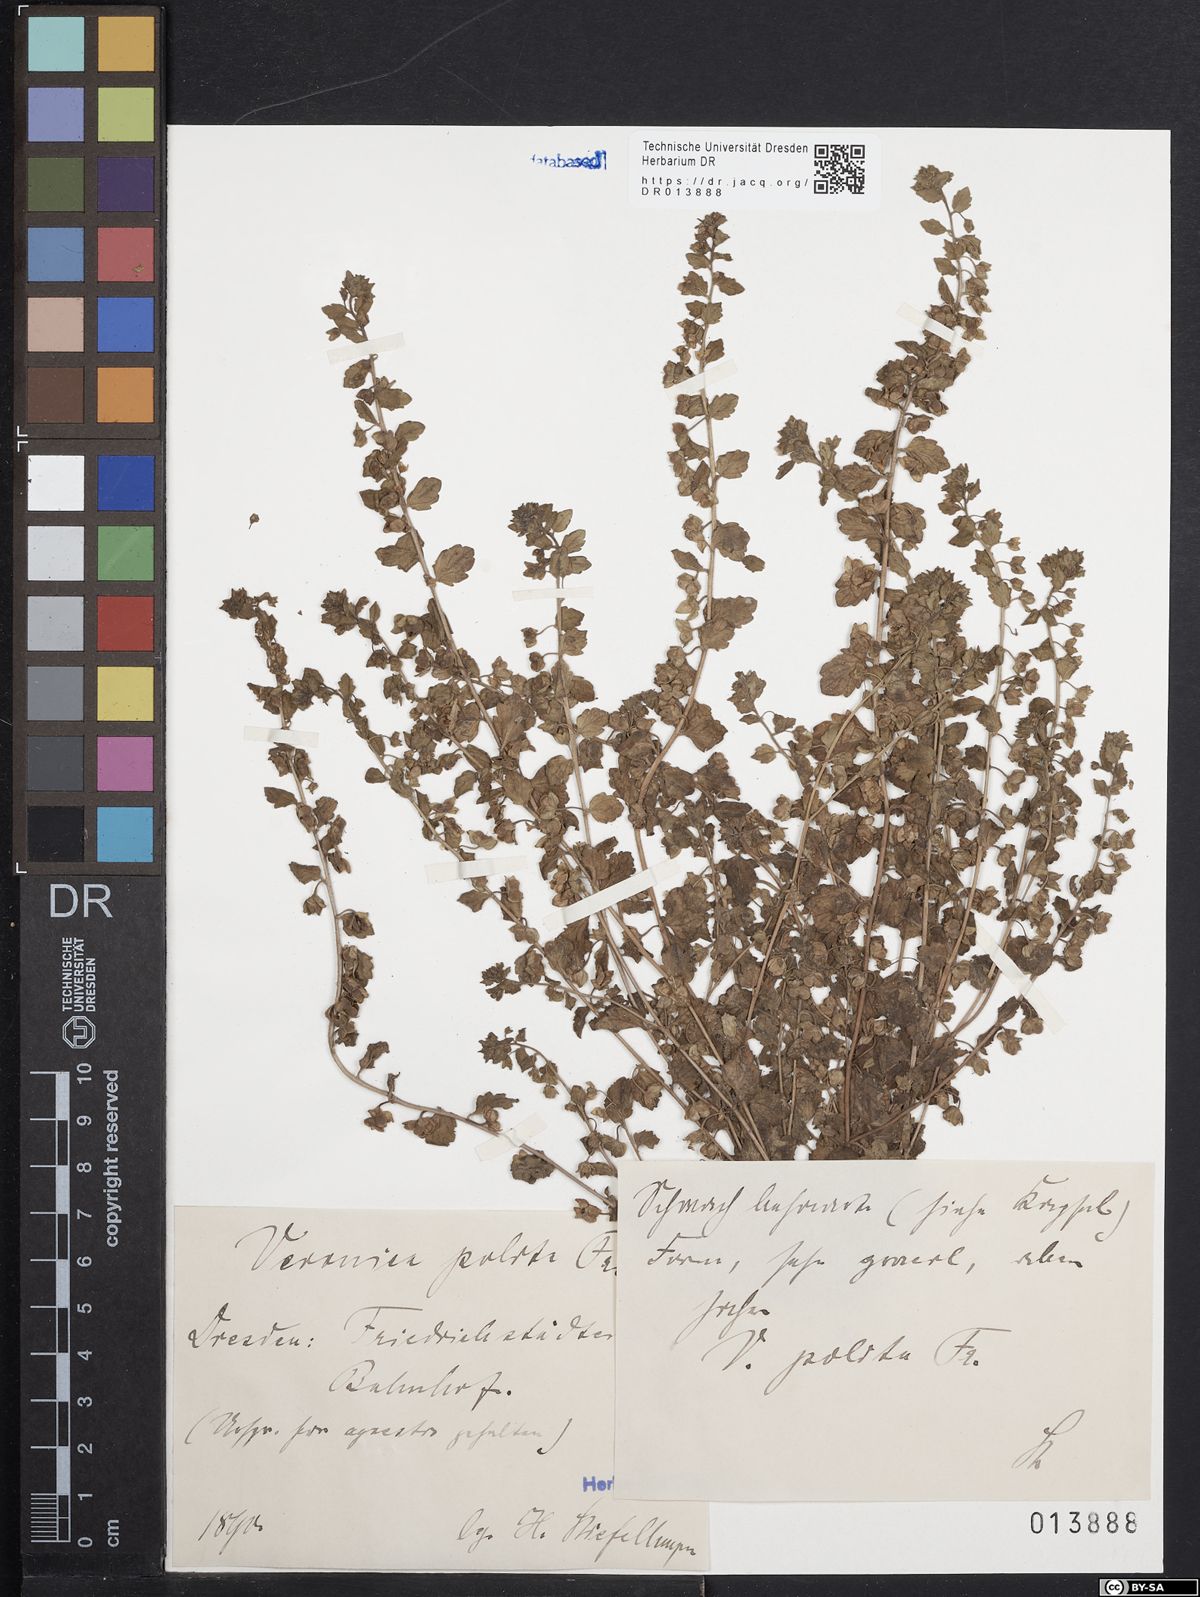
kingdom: Plantae
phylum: Tracheophyta
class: Magnoliopsida
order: Lamiales
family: Plantaginaceae
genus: Veronica
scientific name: Veronica polita
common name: Grey field-speedwell
